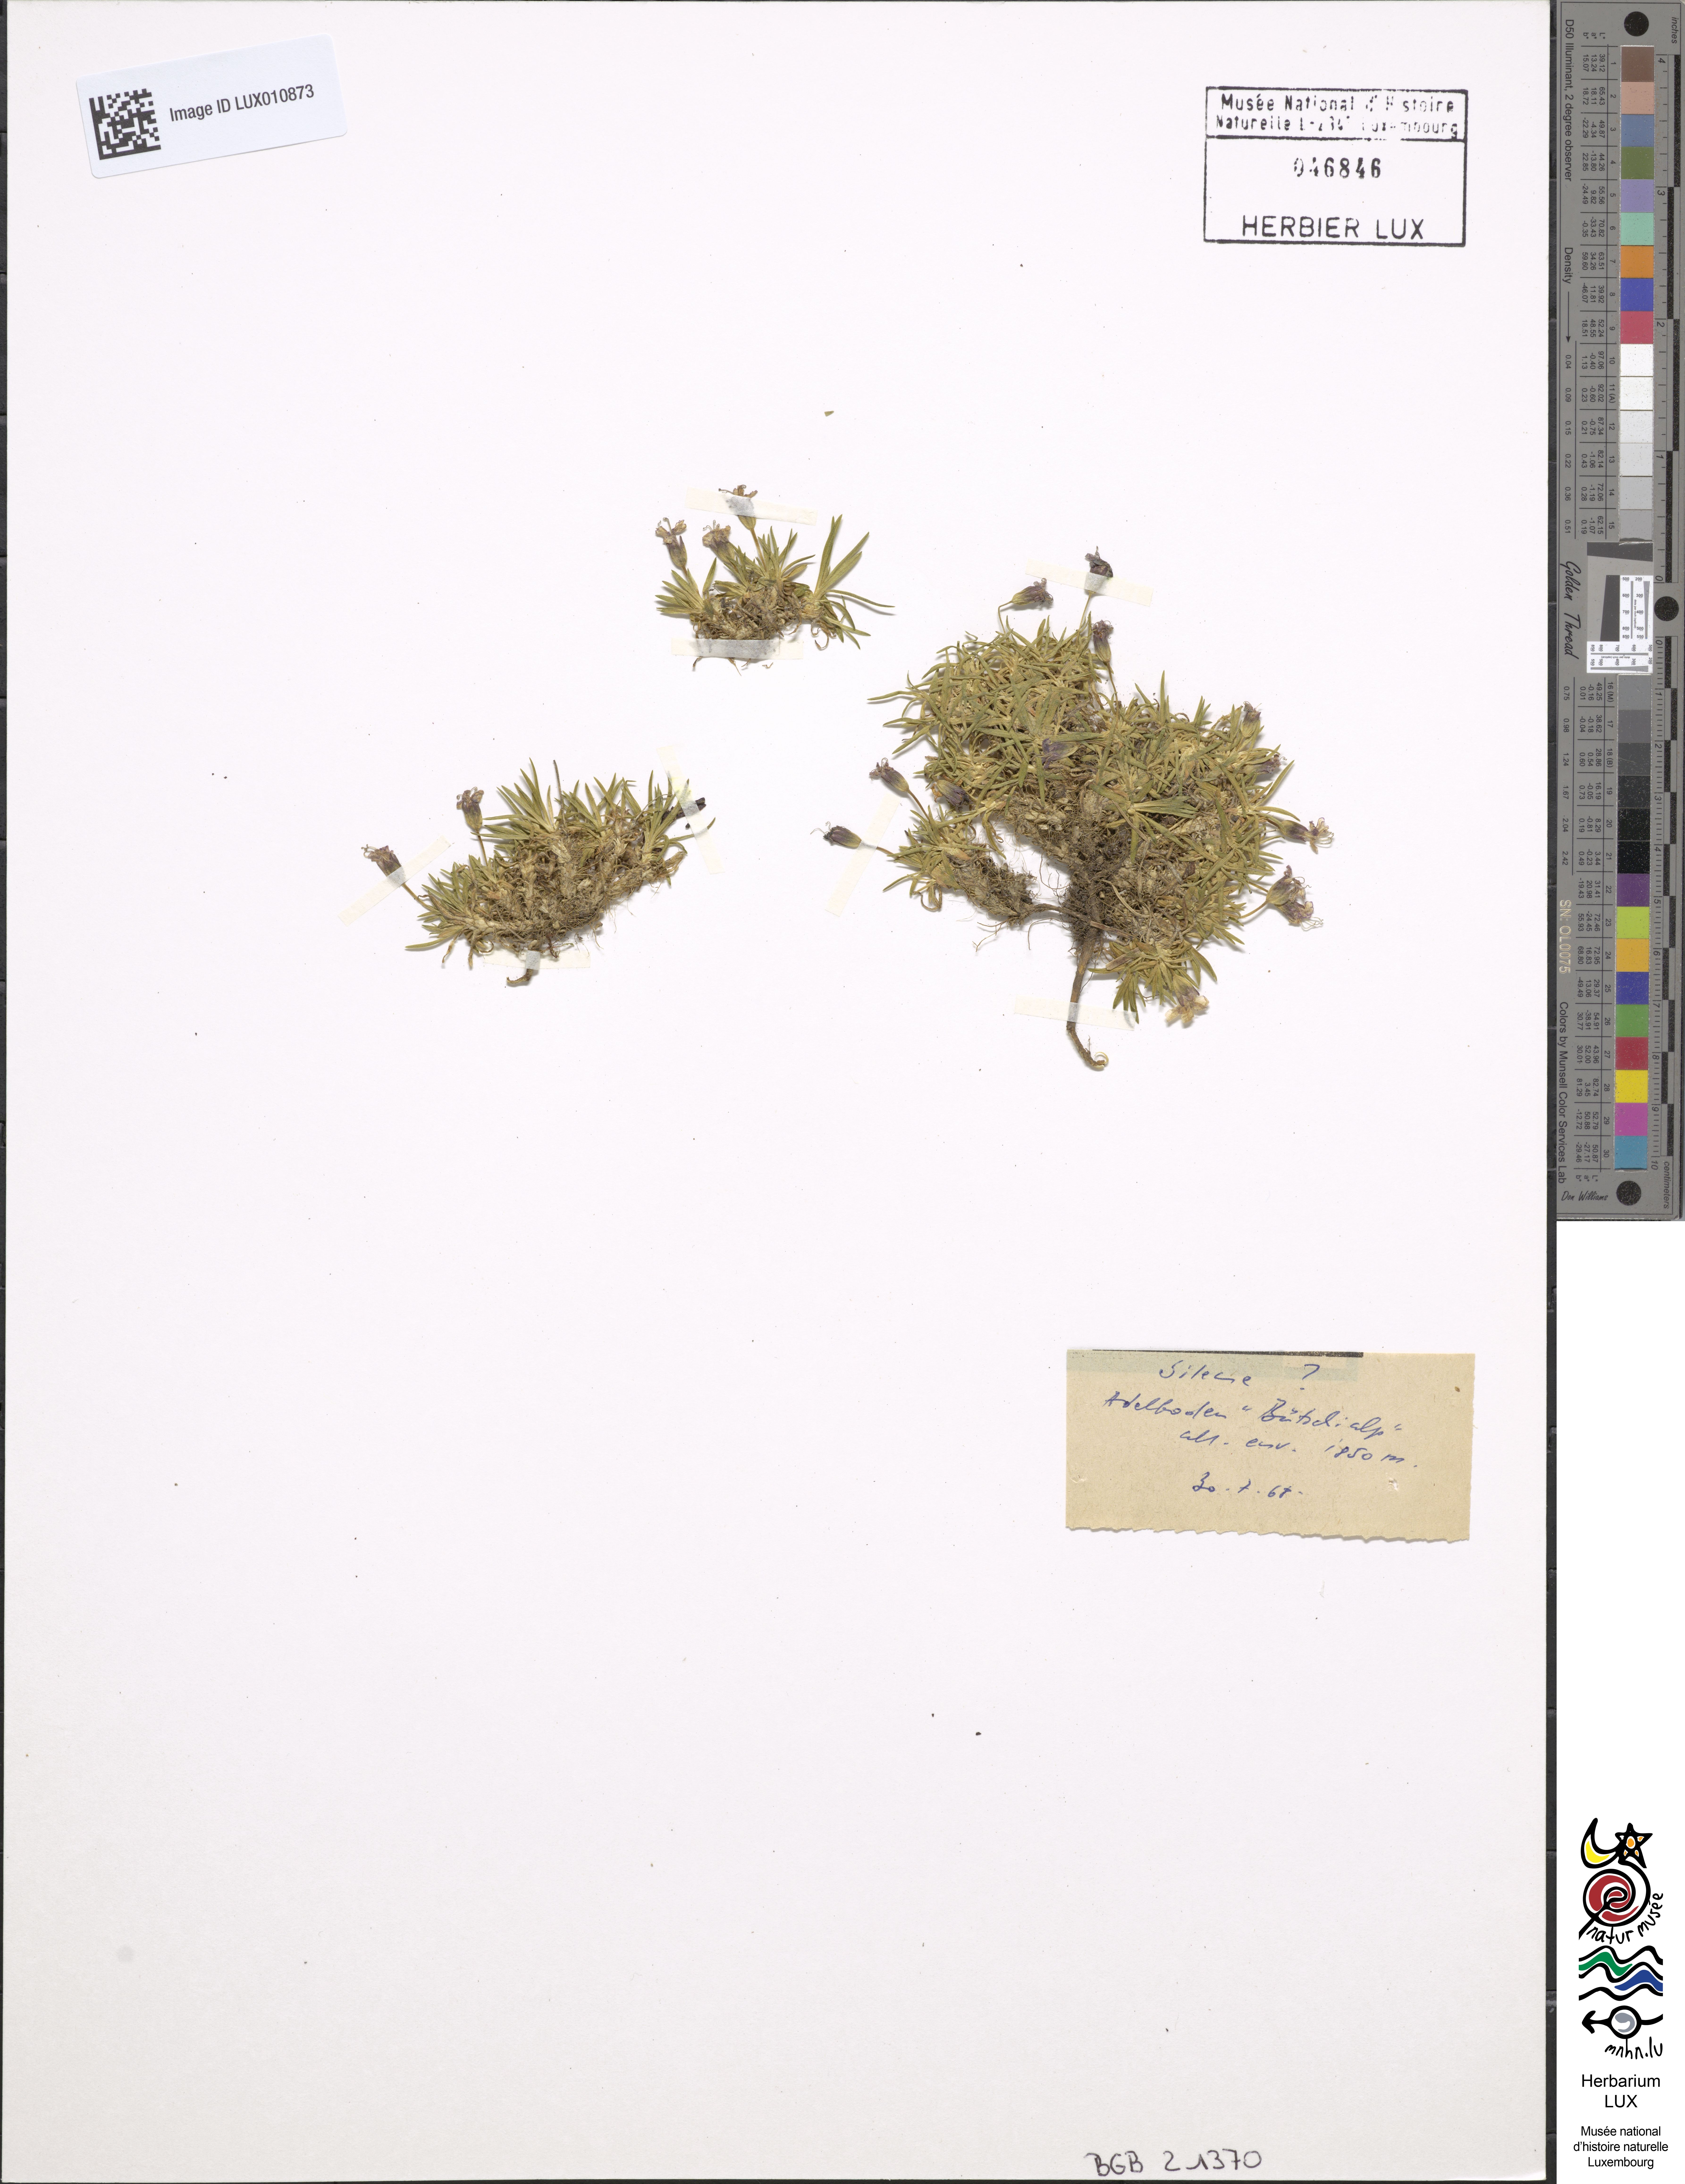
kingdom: Plantae
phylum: Tracheophyta
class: Magnoliopsida
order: Caryophyllales
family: Caryophyllaceae
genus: Silene
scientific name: Silene
